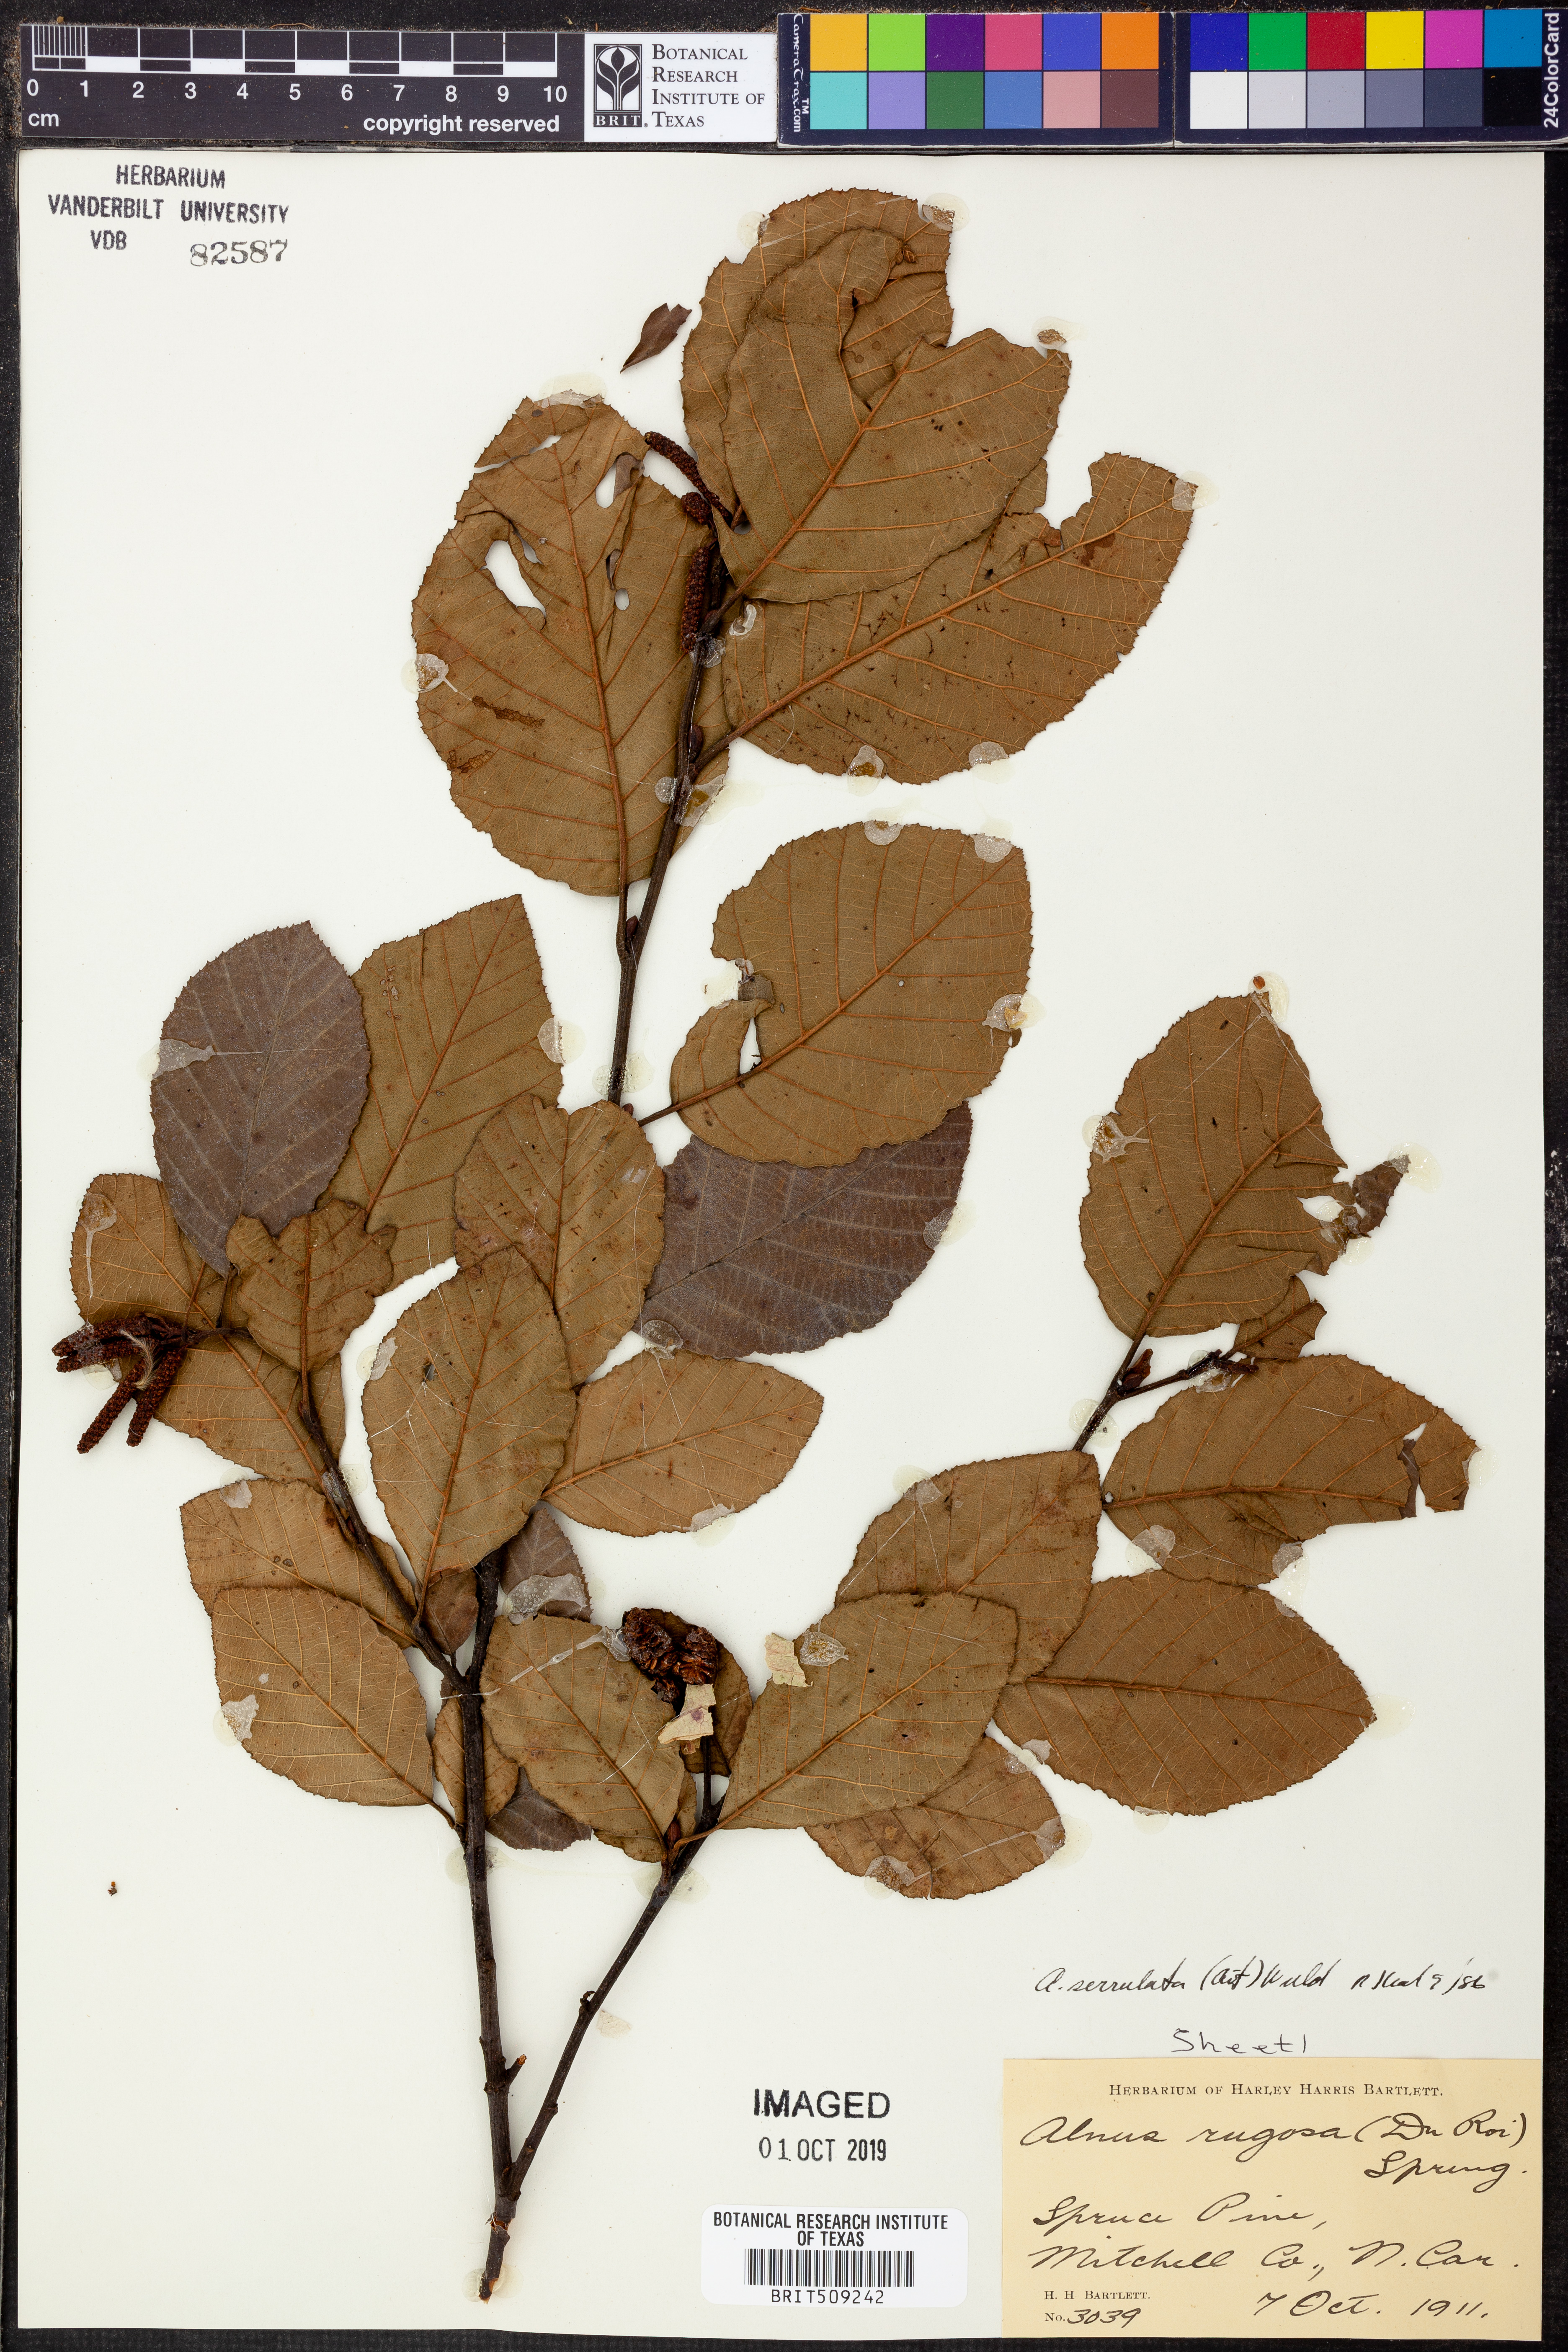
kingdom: Plantae
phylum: Tracheophyta
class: Magnoliopsida
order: Fagales
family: Betulaceae
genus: Alnus
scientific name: Alnus serrulata
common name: Hazel alder
